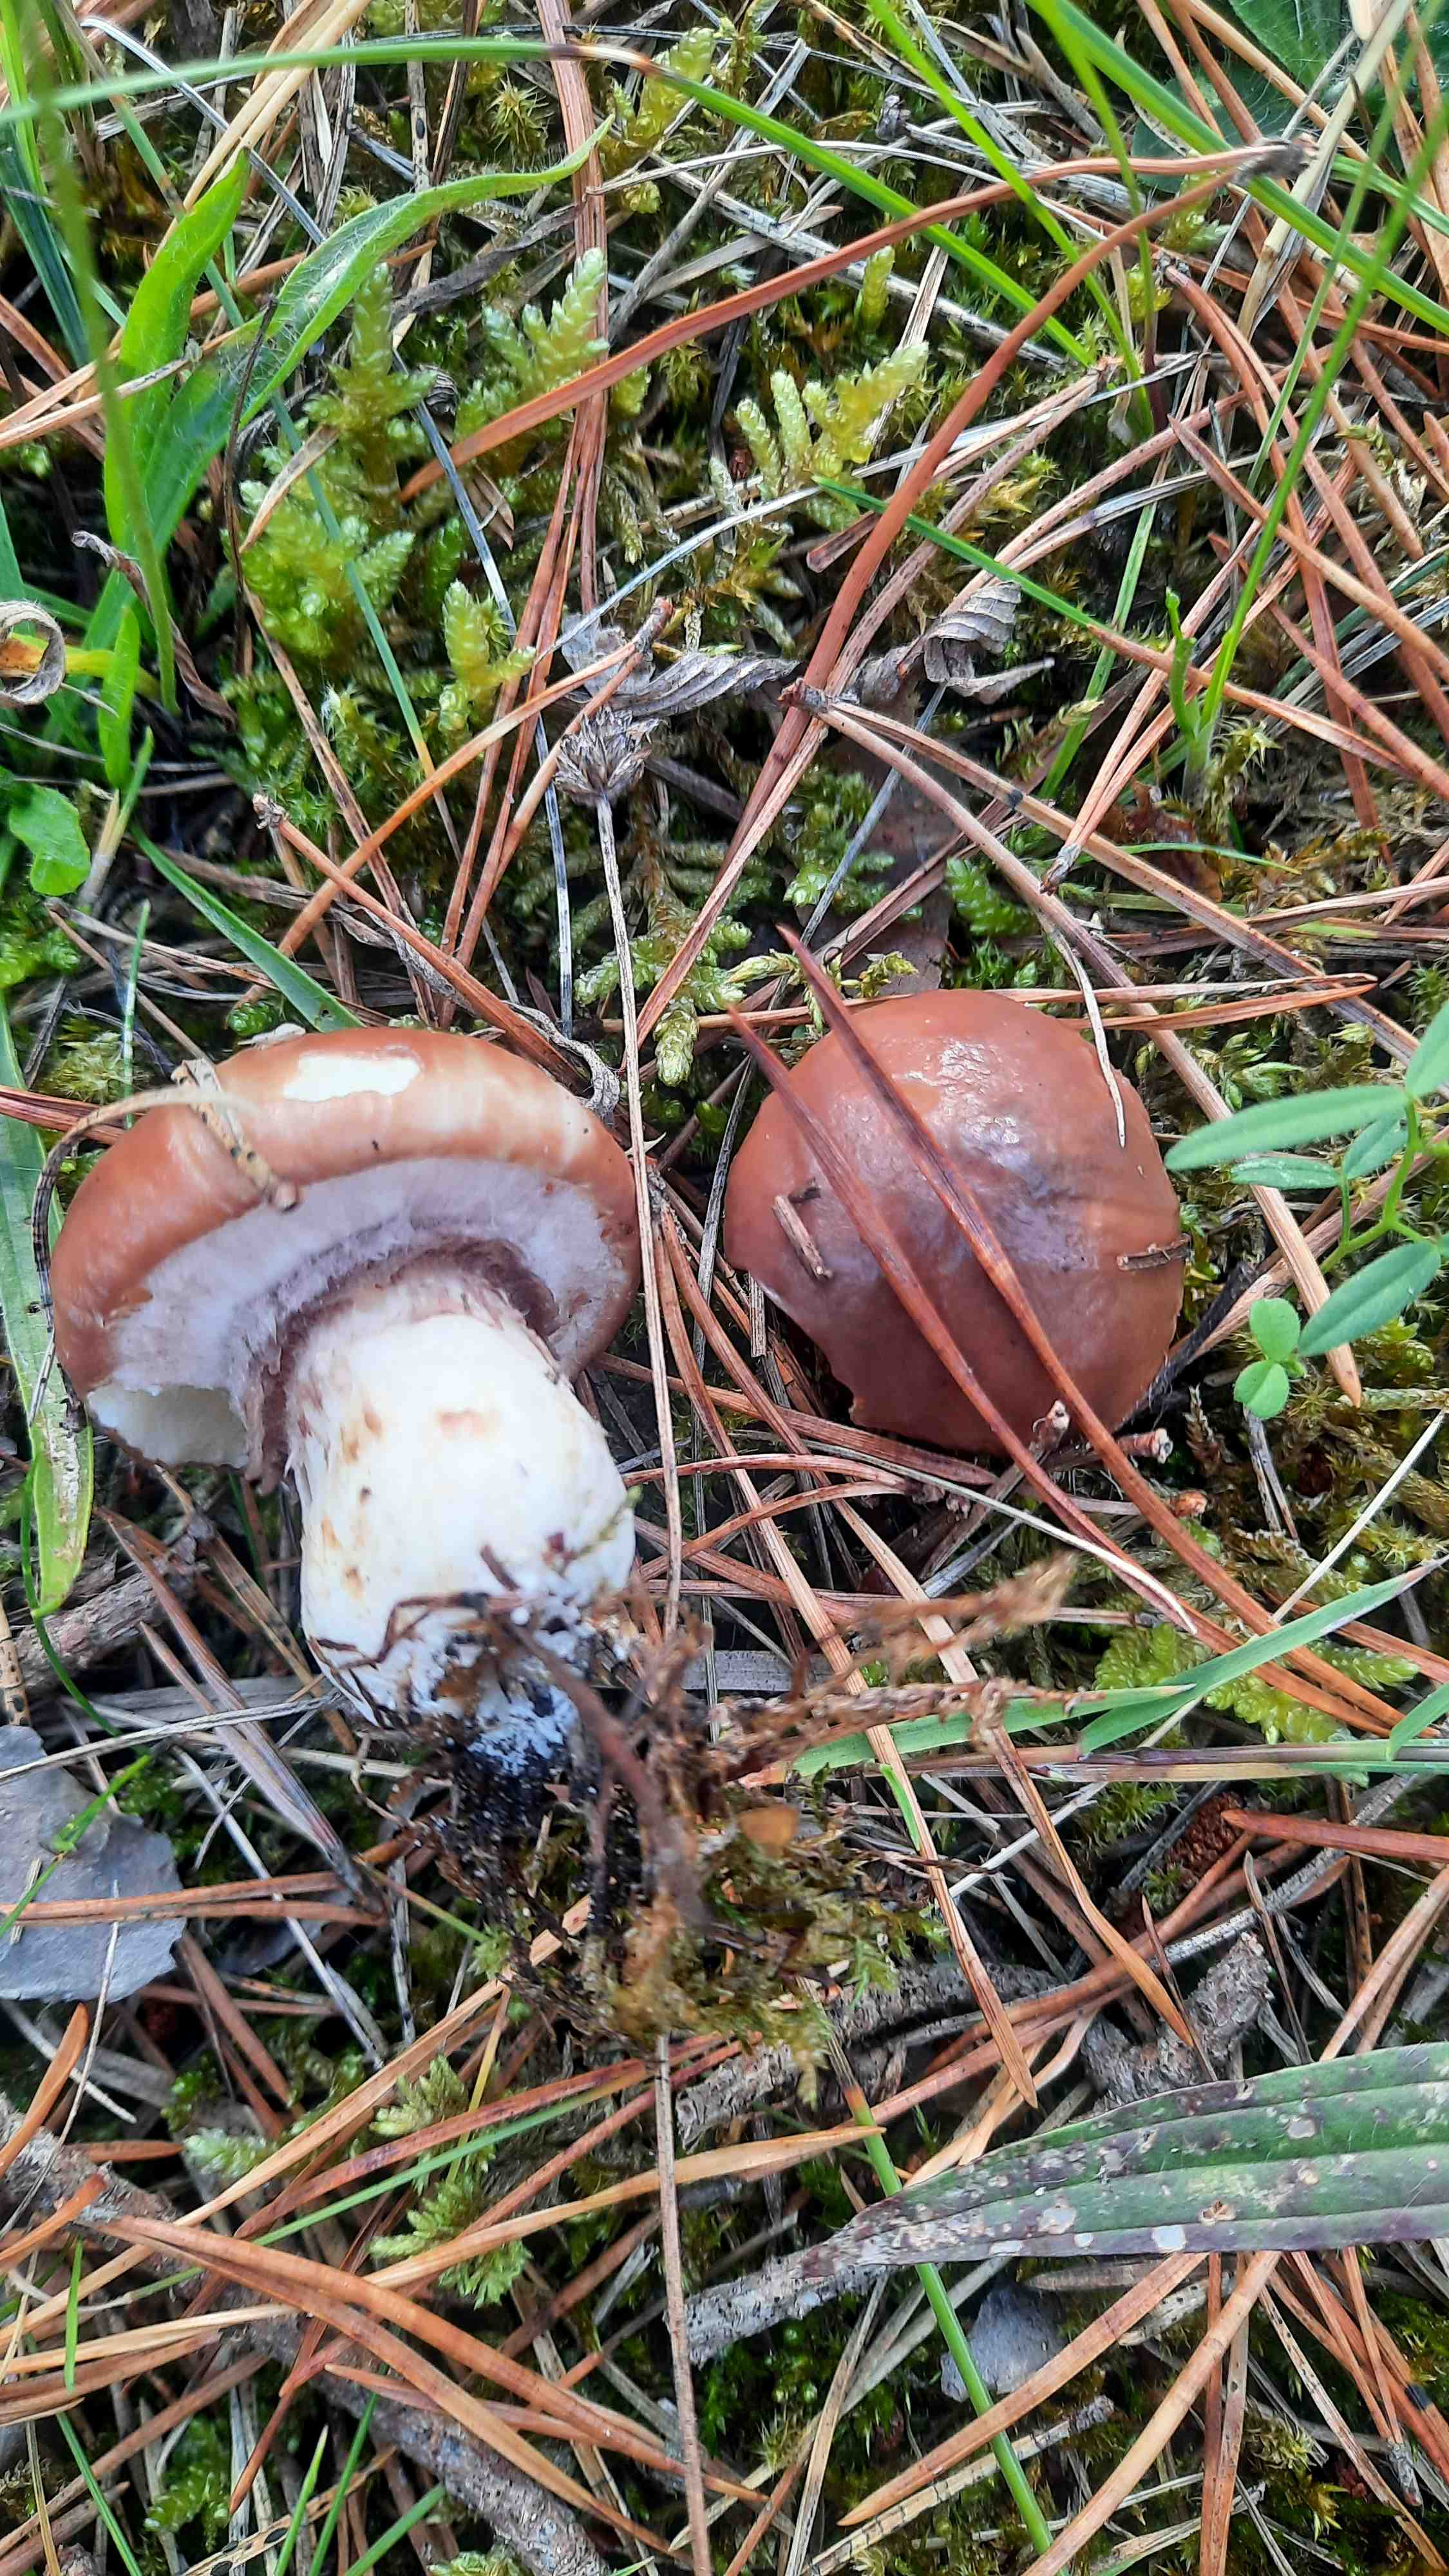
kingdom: Fungi
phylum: Basidiomycota
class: Agaricomycetes
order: Boletales
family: Suillaceae
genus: Suillus
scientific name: Suillus luteus
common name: brungul slimrørhat
